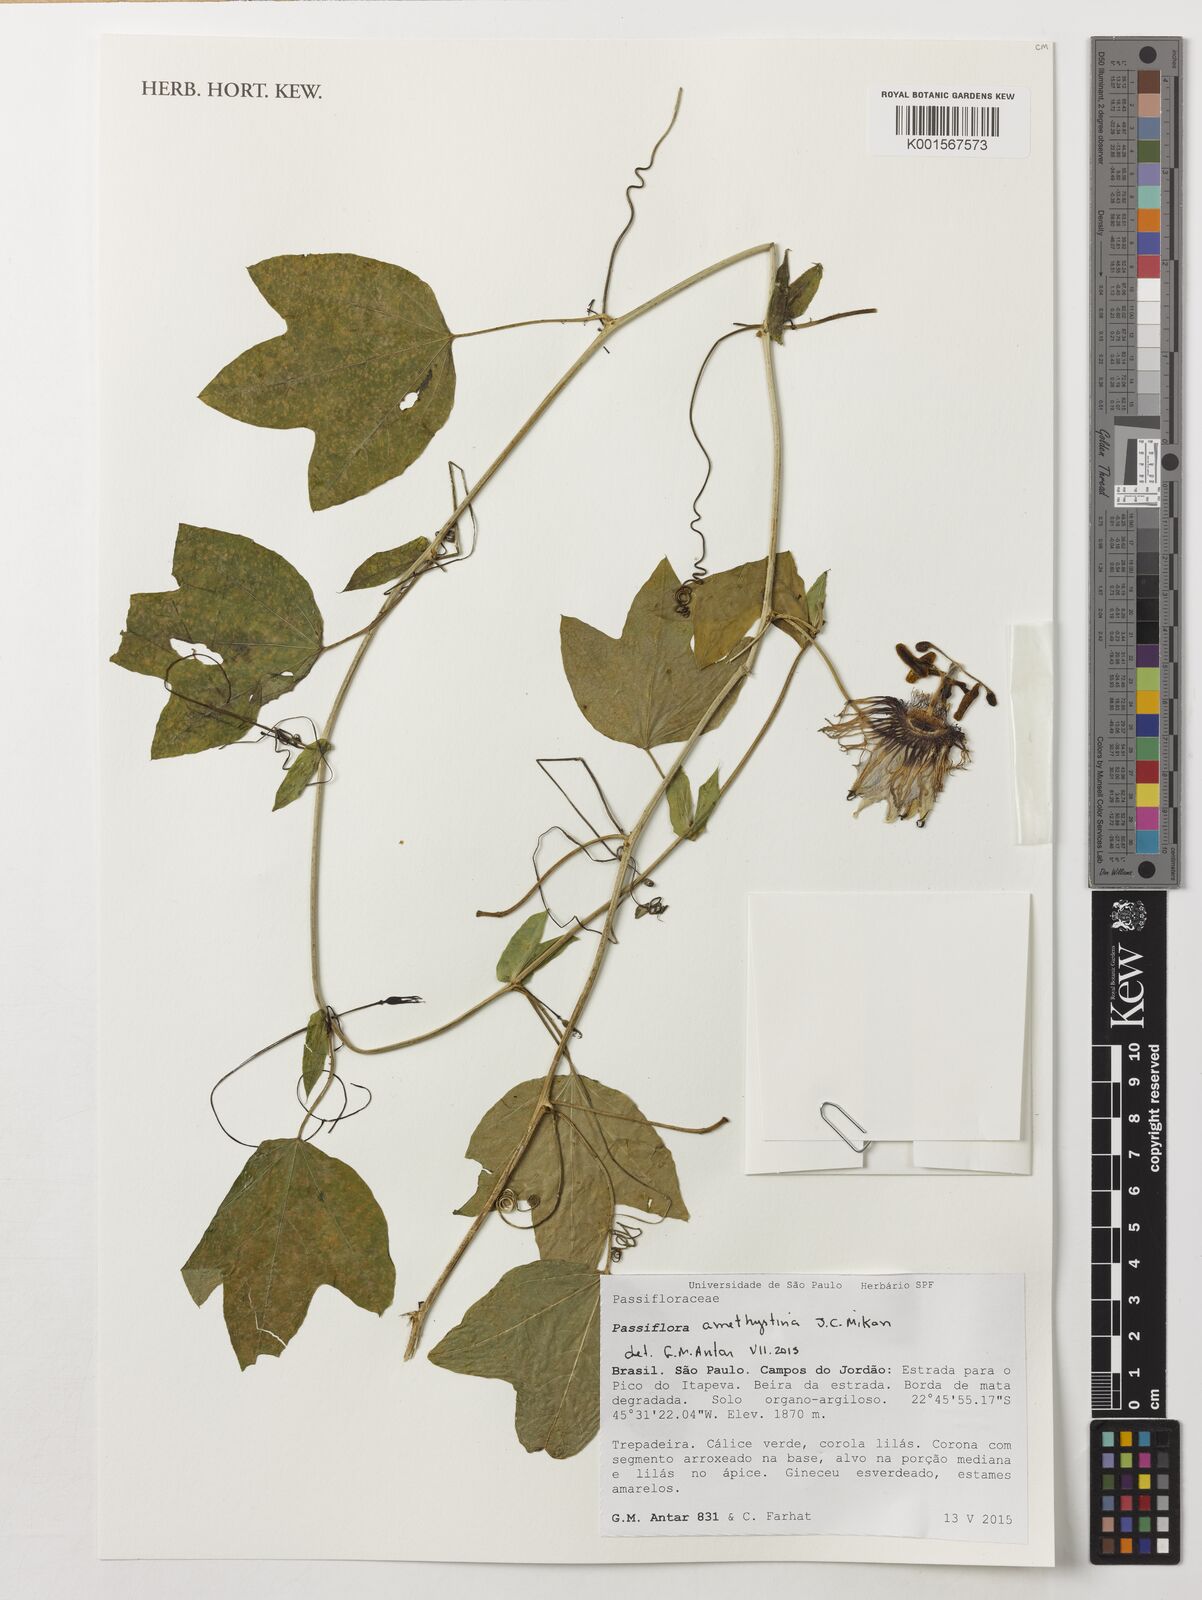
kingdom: Plantae
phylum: Tracheophyta
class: Magnoliopsida
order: Malpighiales
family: Passifloraceae
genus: Passiflora
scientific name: Passiflora amethystina
